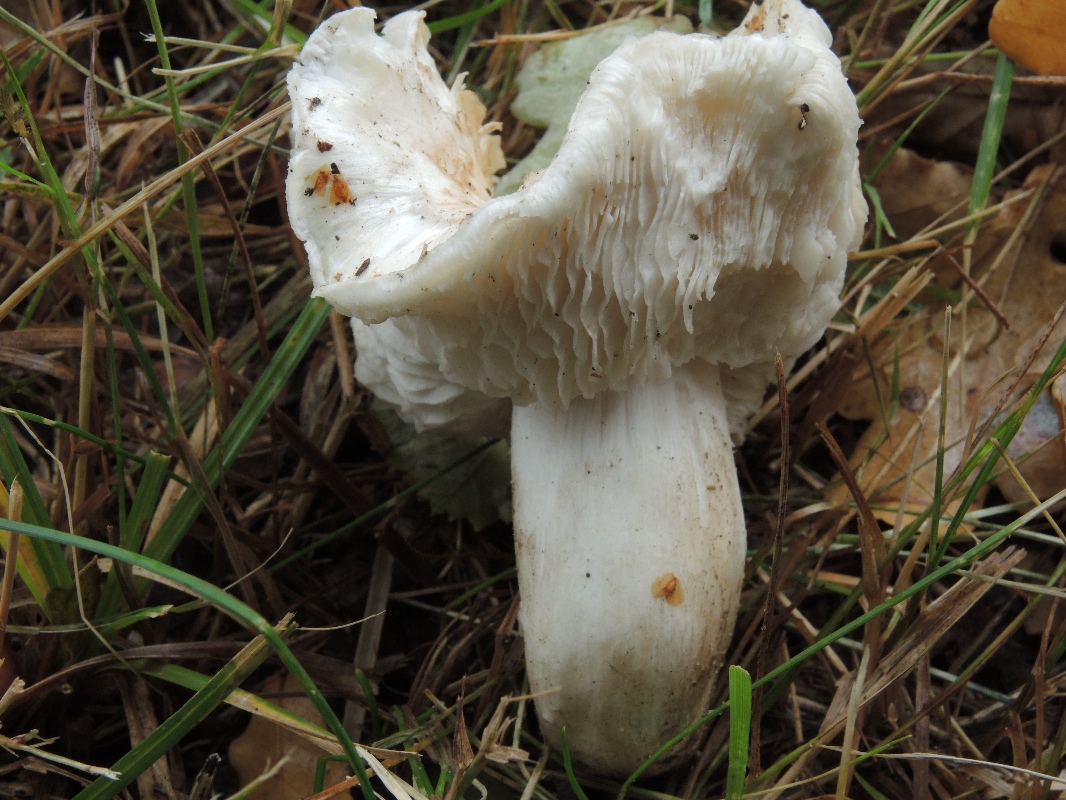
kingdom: Fungi
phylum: Basidiomycota
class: Agaricomycetes
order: Agaricales
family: Tricholomataceae
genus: Tricholoma
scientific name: Tricholoma columbetta
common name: silke-ridderhat
